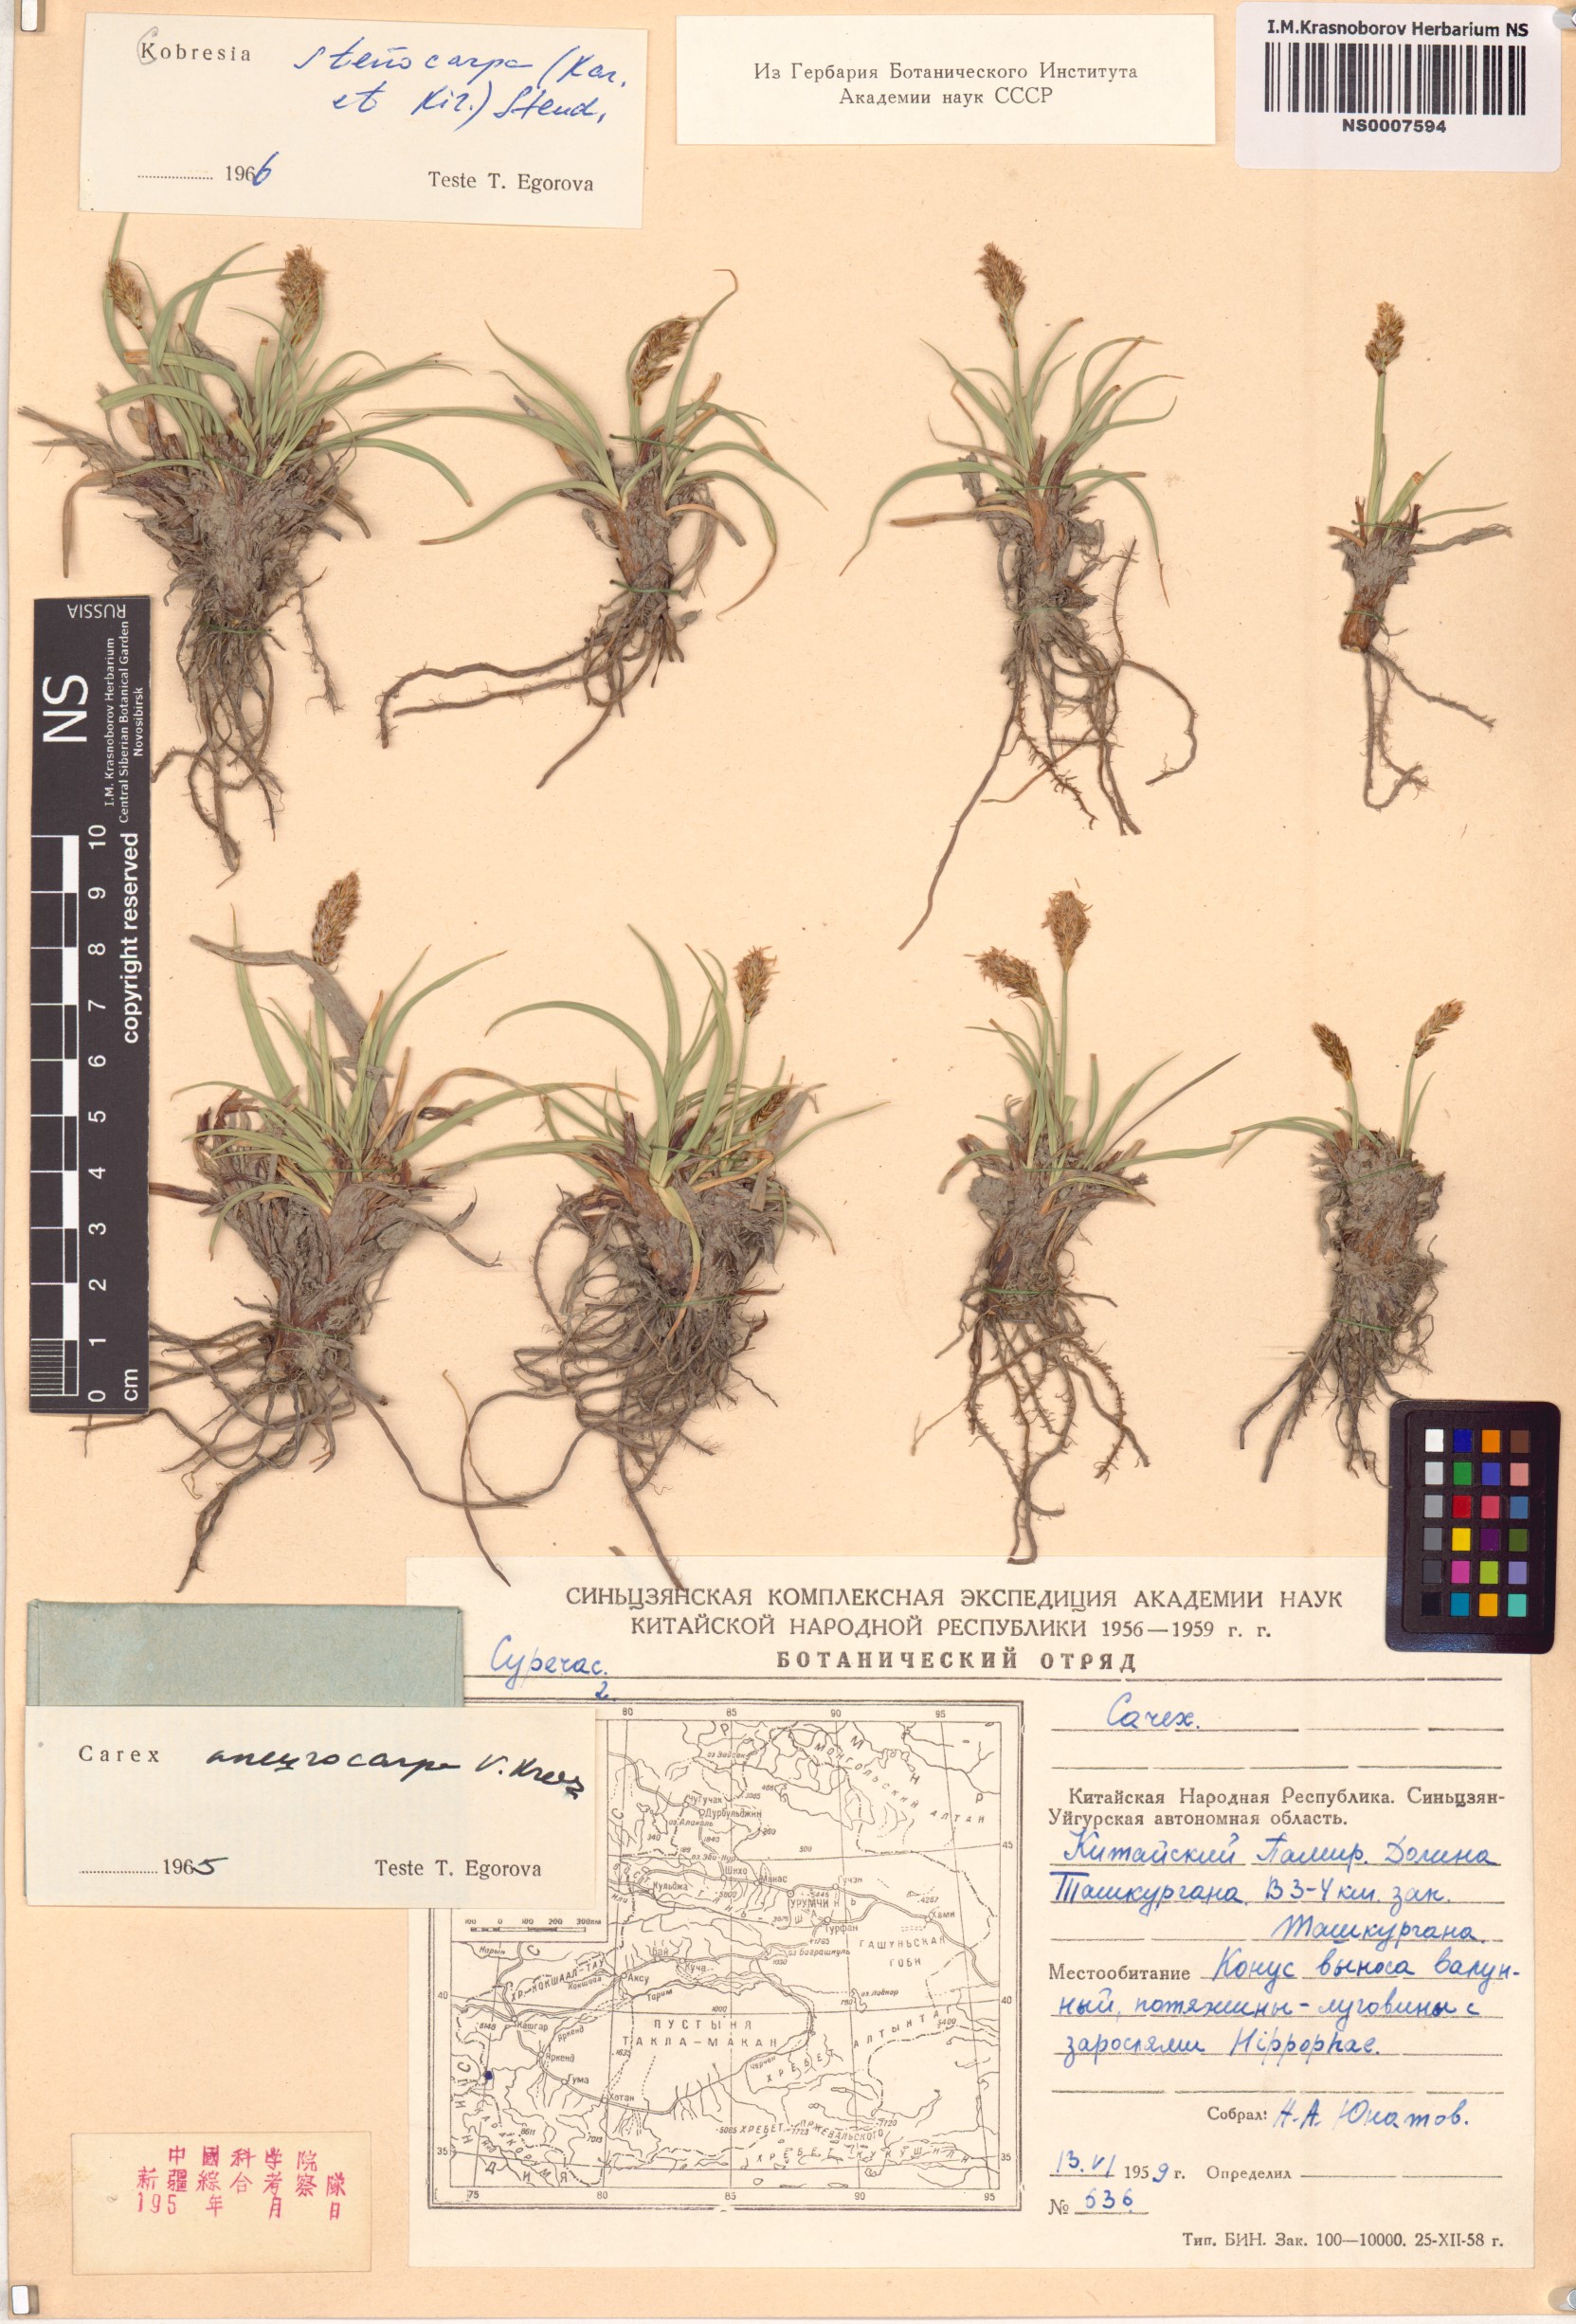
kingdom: Plantae
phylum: Tracheophyta
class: Liliopsida
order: Poales
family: Cyperaceae
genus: Carex
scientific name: Carex kokanica
